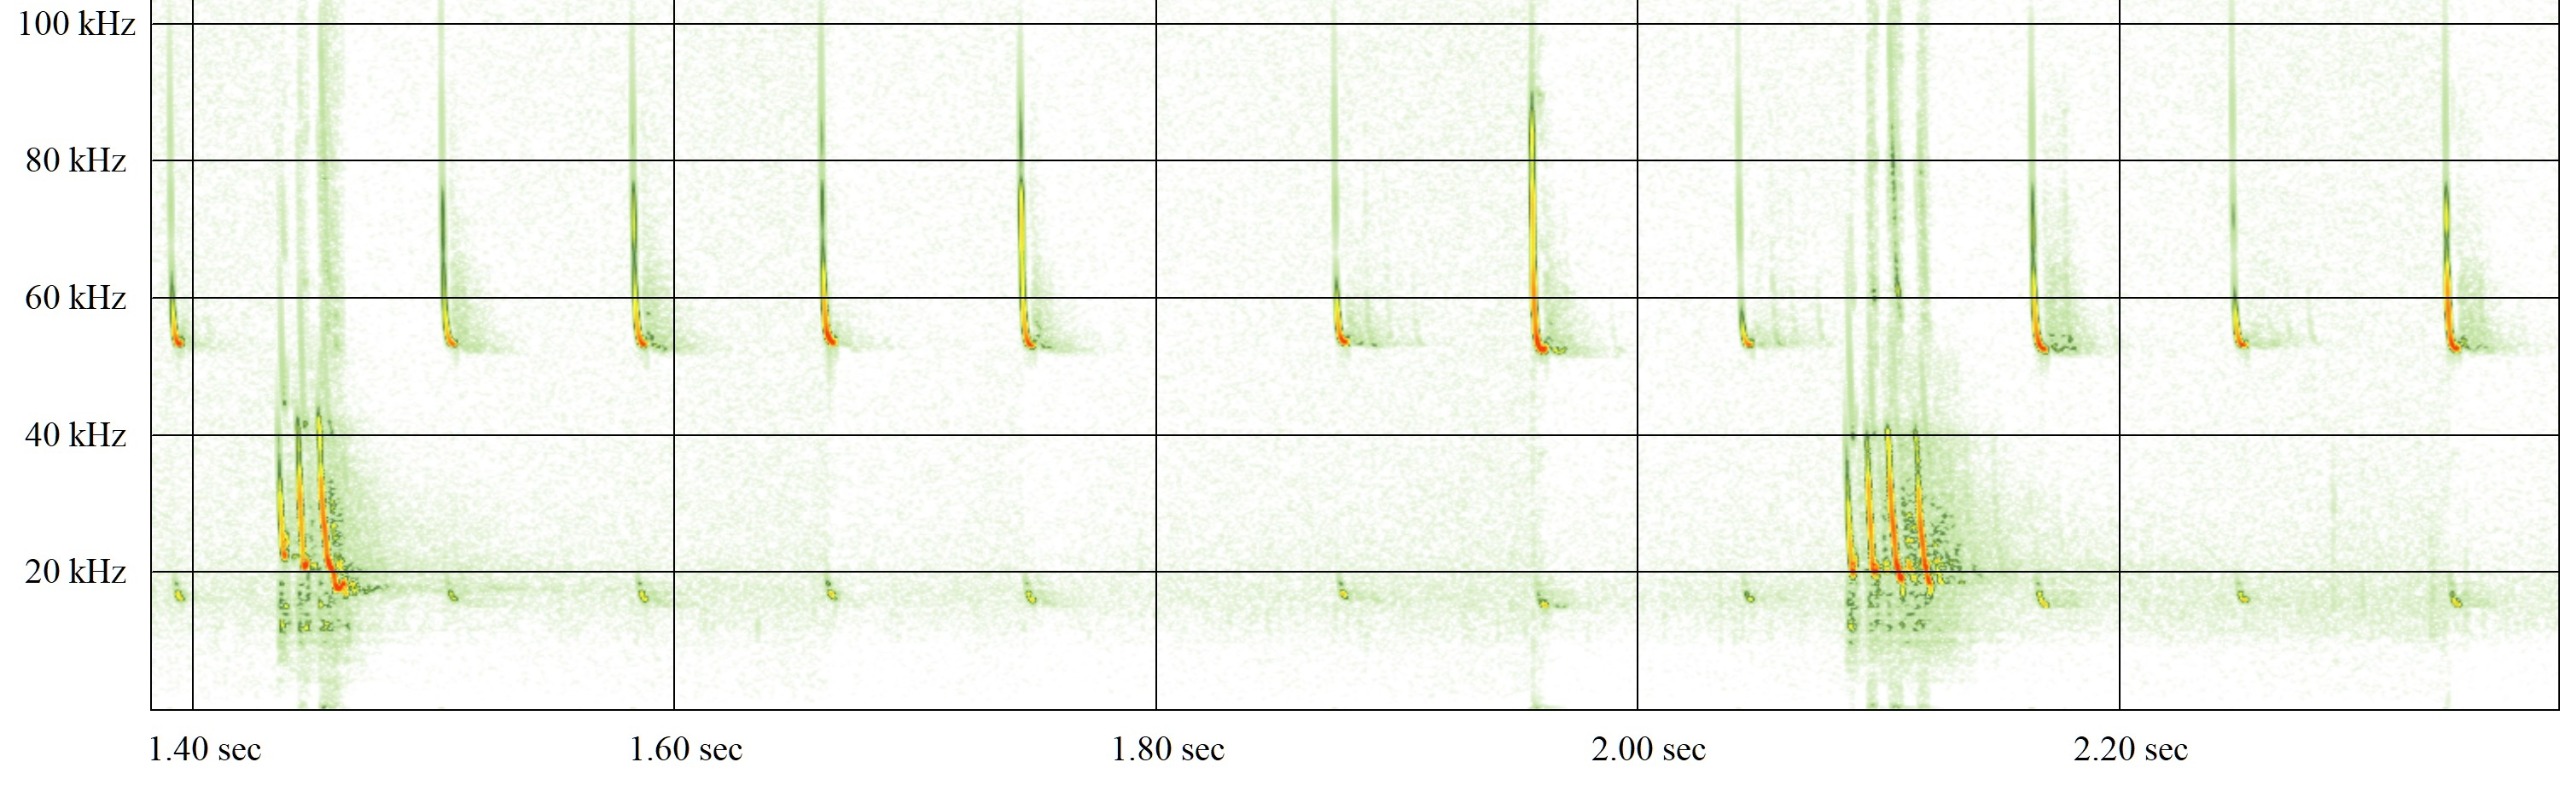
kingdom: Animalia
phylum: Chordata
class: Mammalia
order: Chiroptera
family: Vespertilionidae
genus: Pipistrellus
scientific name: Pipistrellus pygmaeus
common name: Dværgflagermus
